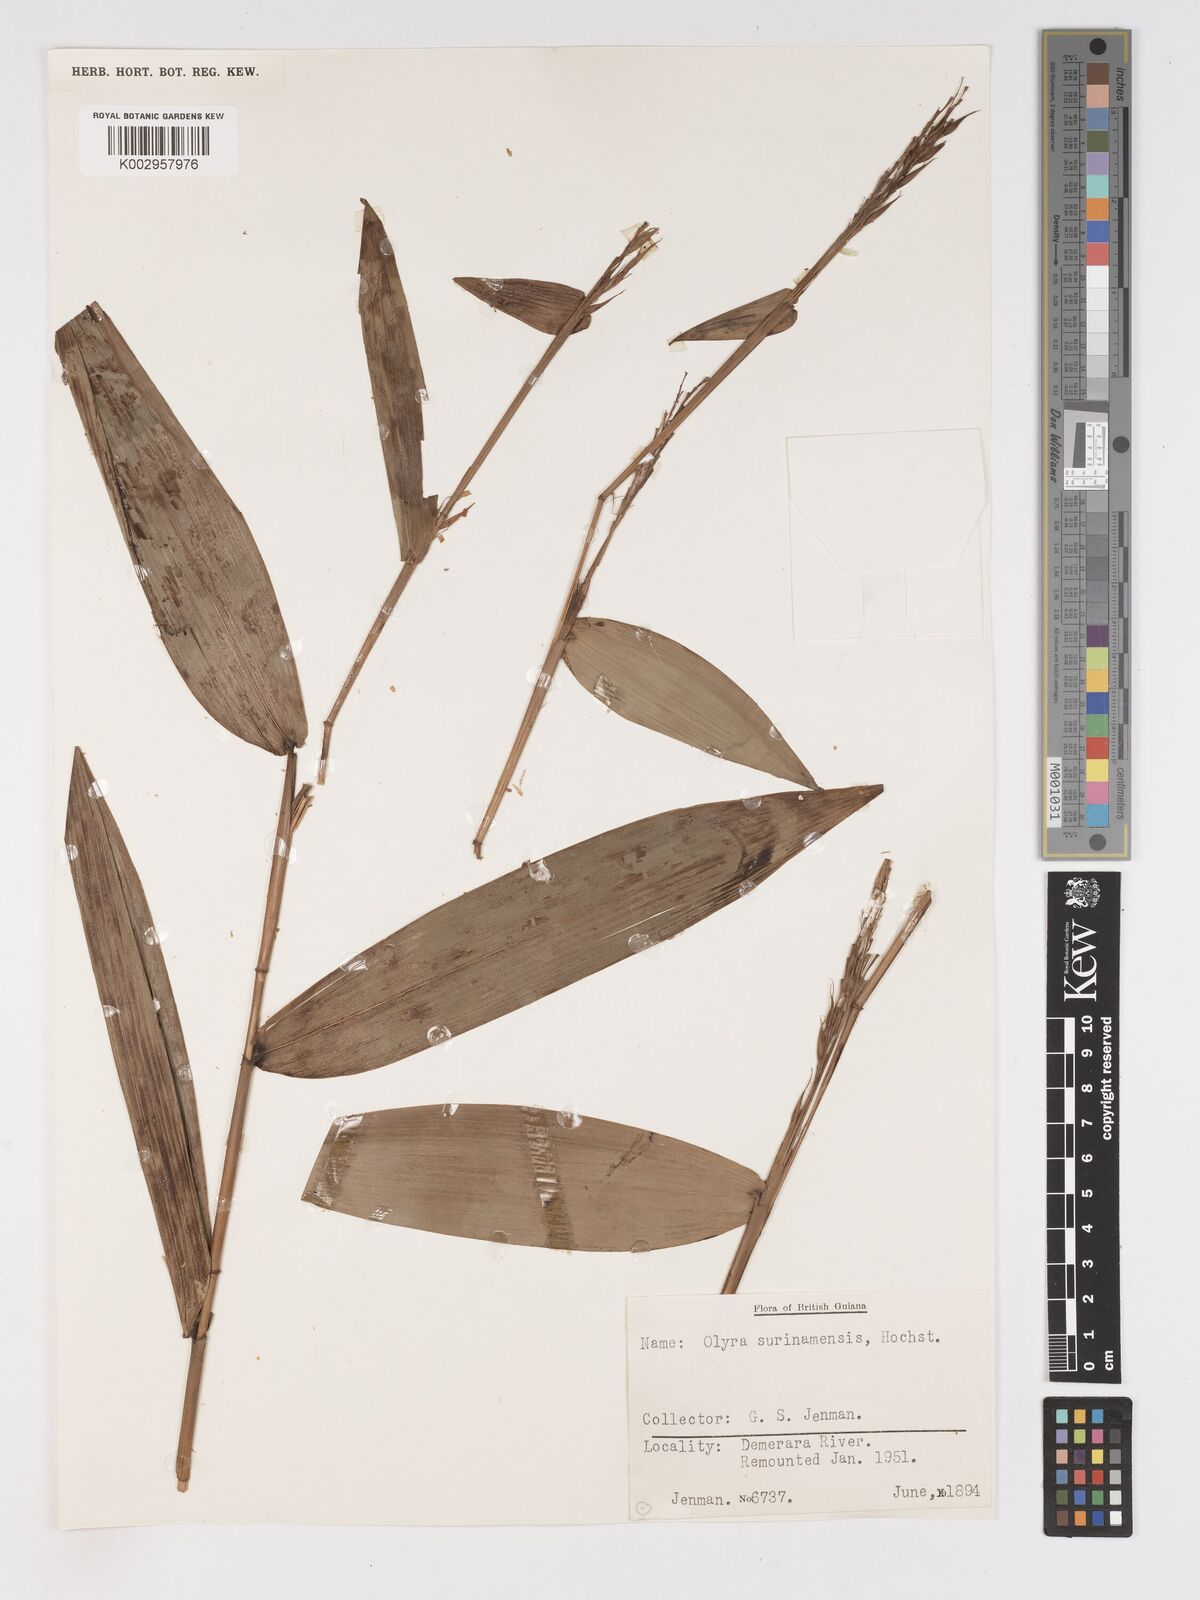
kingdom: Plantae
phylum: Tracheophyta
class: Liliopsida
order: Poales
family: Poaceae
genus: Olyra
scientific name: Olyra longifolia
